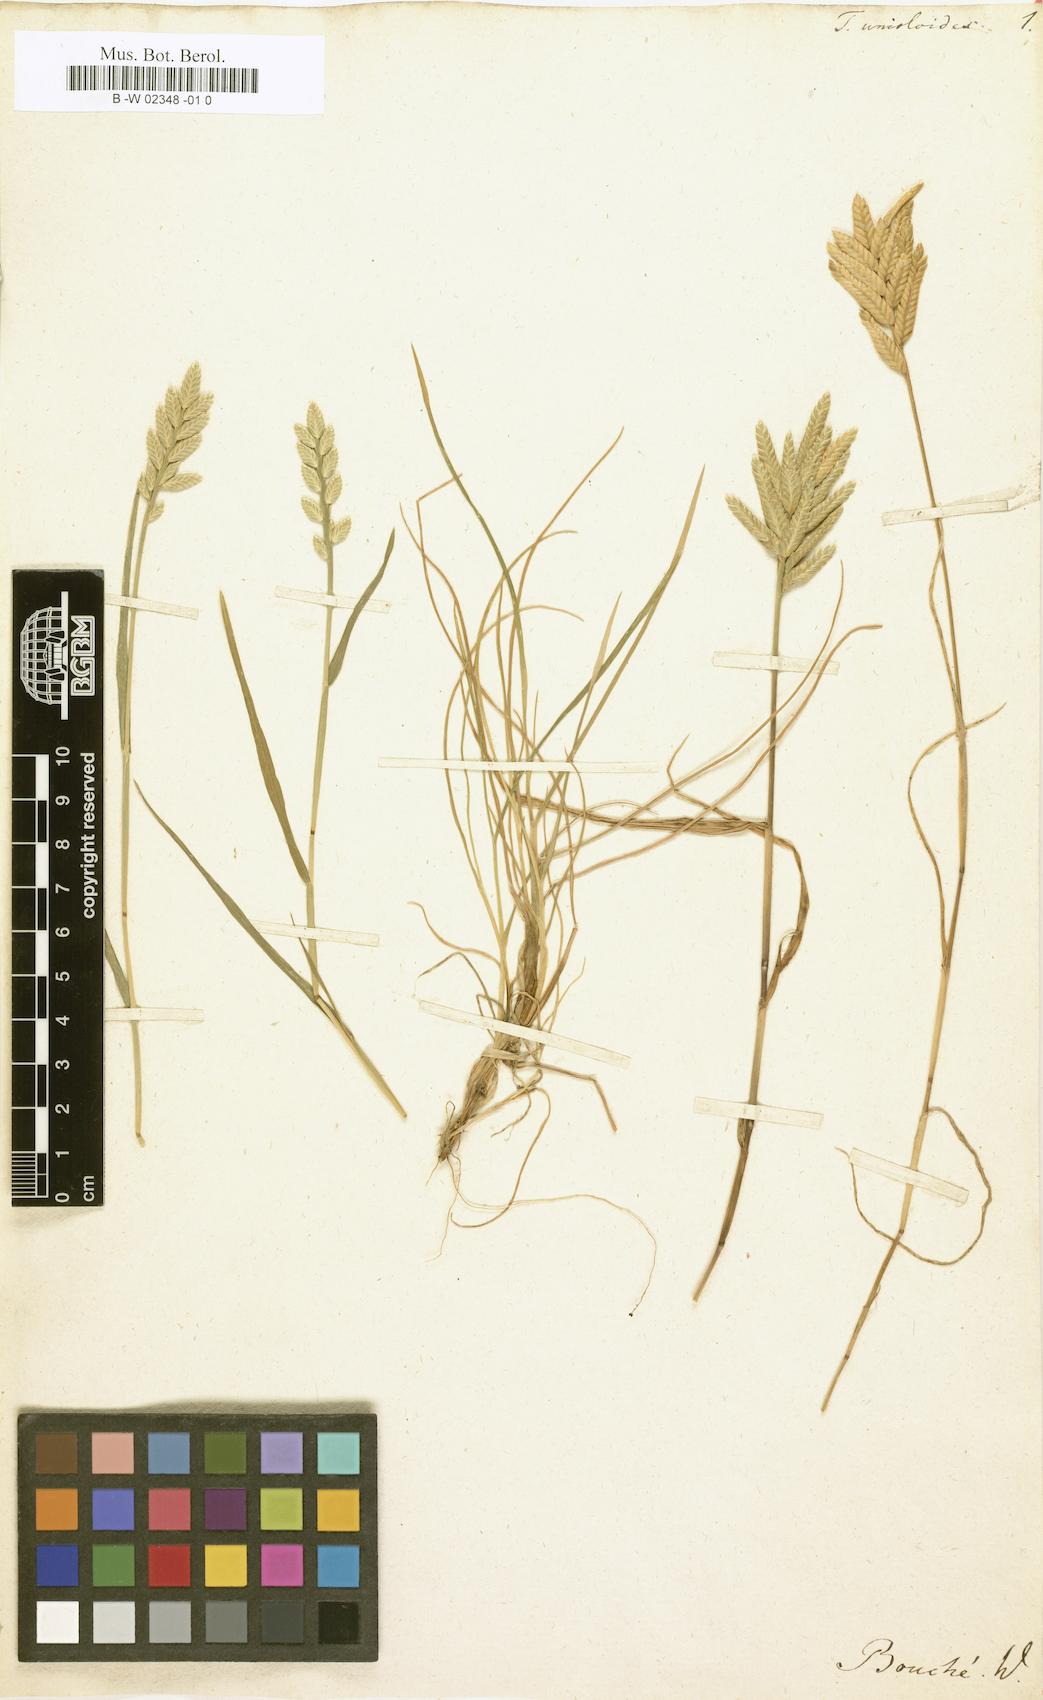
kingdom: Plantae
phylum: Tracheophyta
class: Liliopsida
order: Poales
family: Poaceae
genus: Desmazeria
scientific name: Desmazeria sicula
